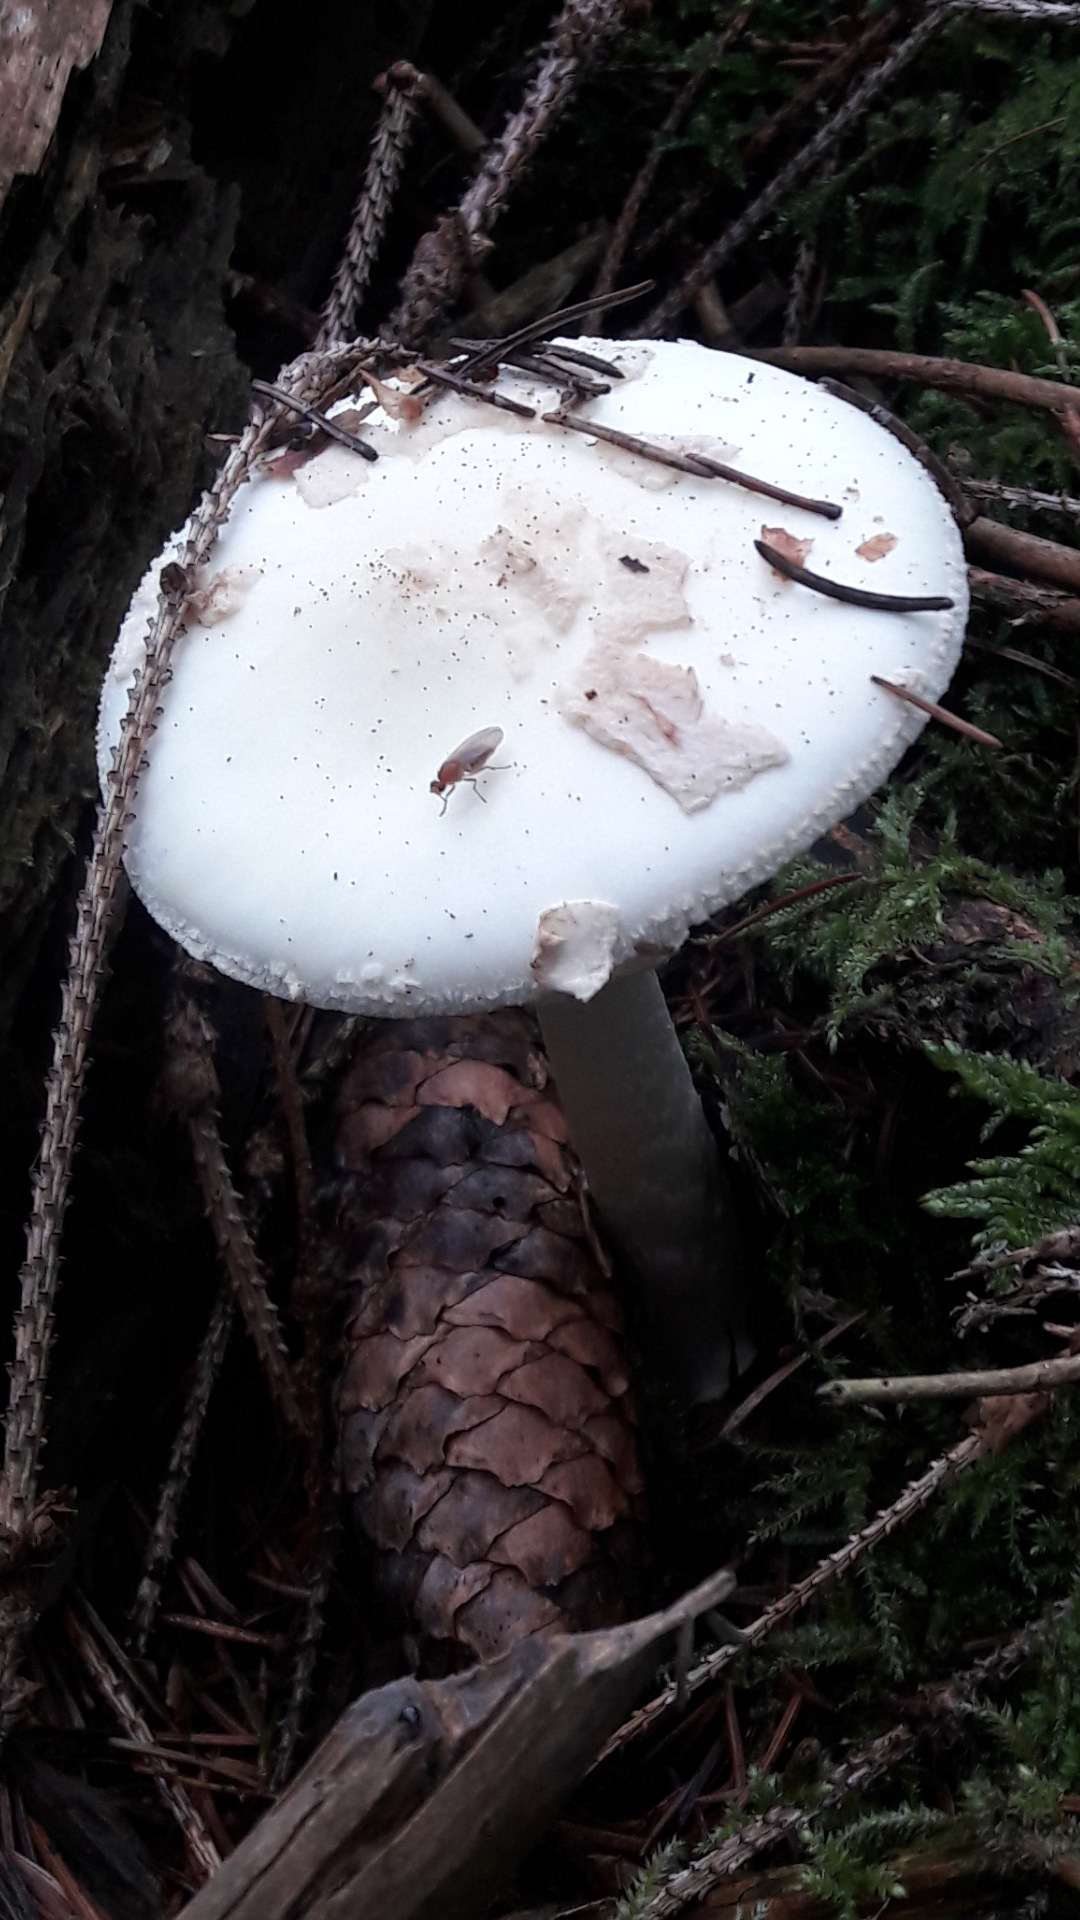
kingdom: Fungi
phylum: Basidiomycota
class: Agaricomycetes
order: Agaricales
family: Amanitaceae
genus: Amanita
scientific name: Amanita citrina
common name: False death-cap
